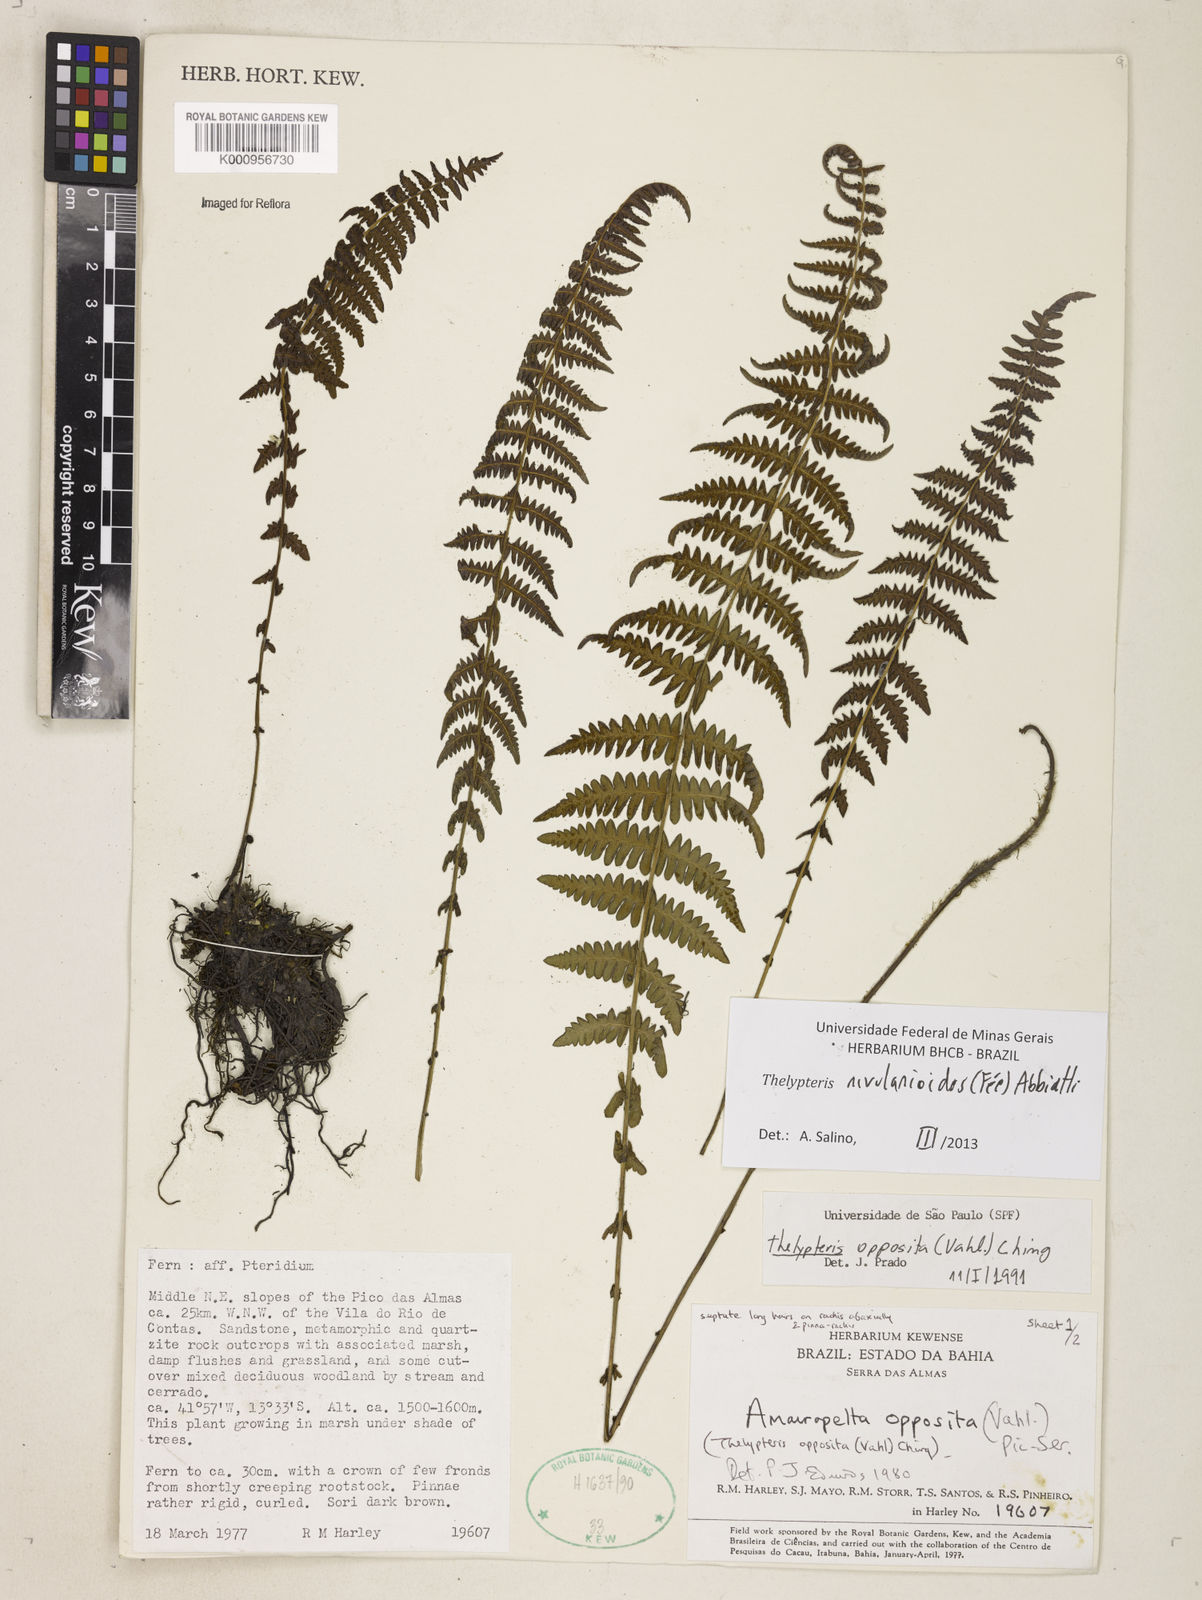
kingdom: Plantae
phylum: Tracheophyta
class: Polypodiopsida
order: Polypodiales
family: Thelypteridaceae
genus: Amauropelta
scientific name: Amauropelta rivularioides
